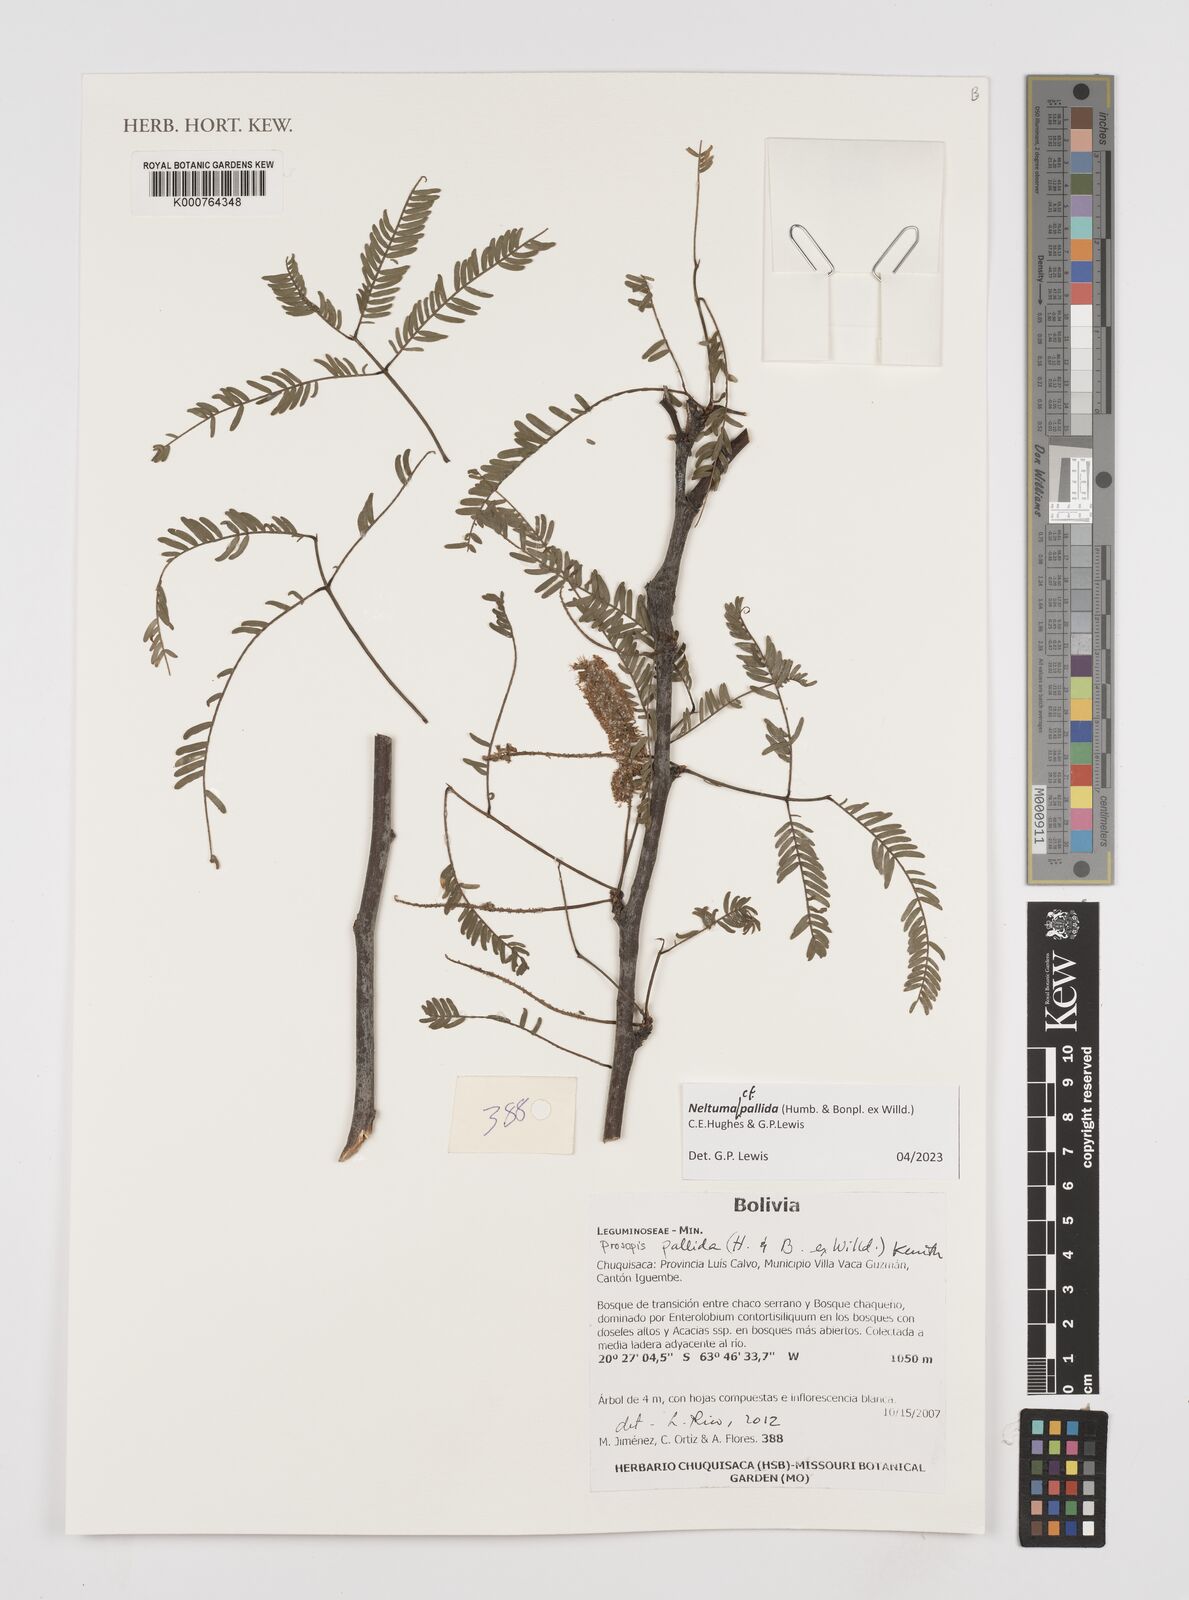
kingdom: Plantae
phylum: Tracheophyta
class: Magnoliopsida
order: Fabales
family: Fabaceae
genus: Prosopis
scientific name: Prosopis pallida
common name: Mesquite
